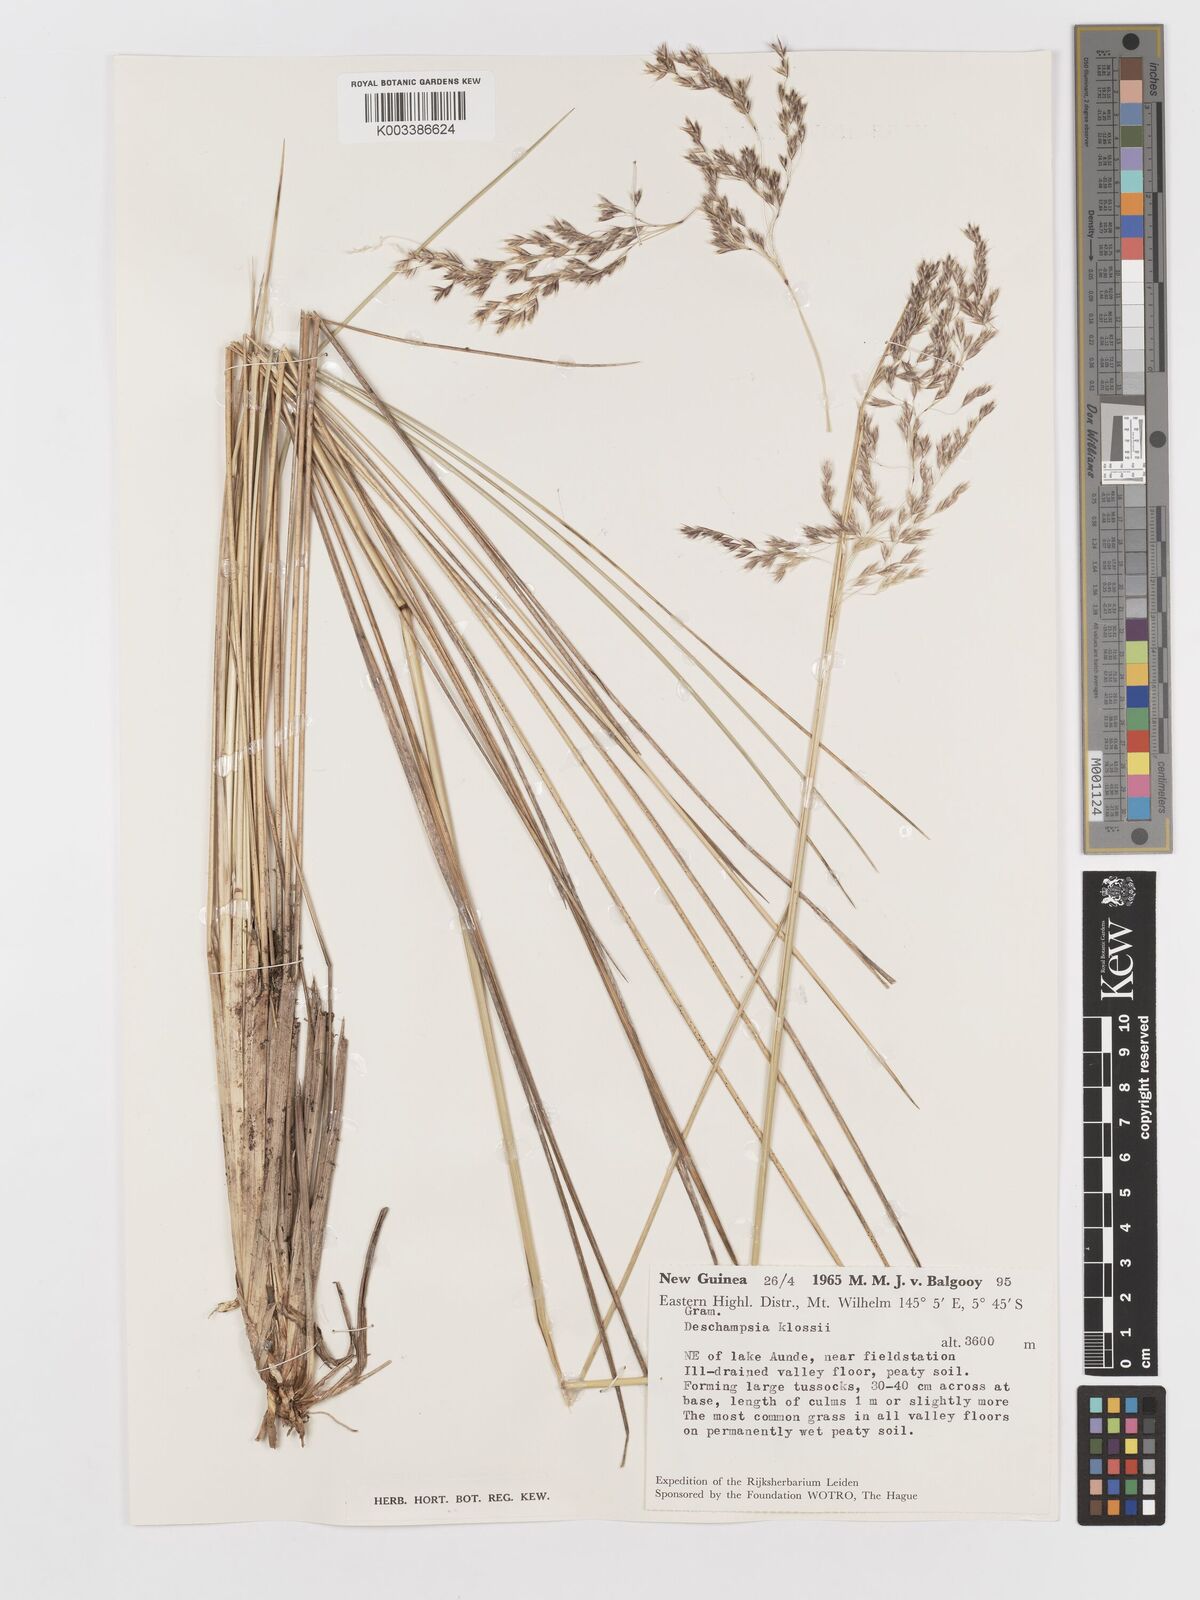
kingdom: Plantae
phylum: Tracheophyta
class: Liliopsida
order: Poales
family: Poaceae
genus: Deschampsia
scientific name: Deschampsia klossii
